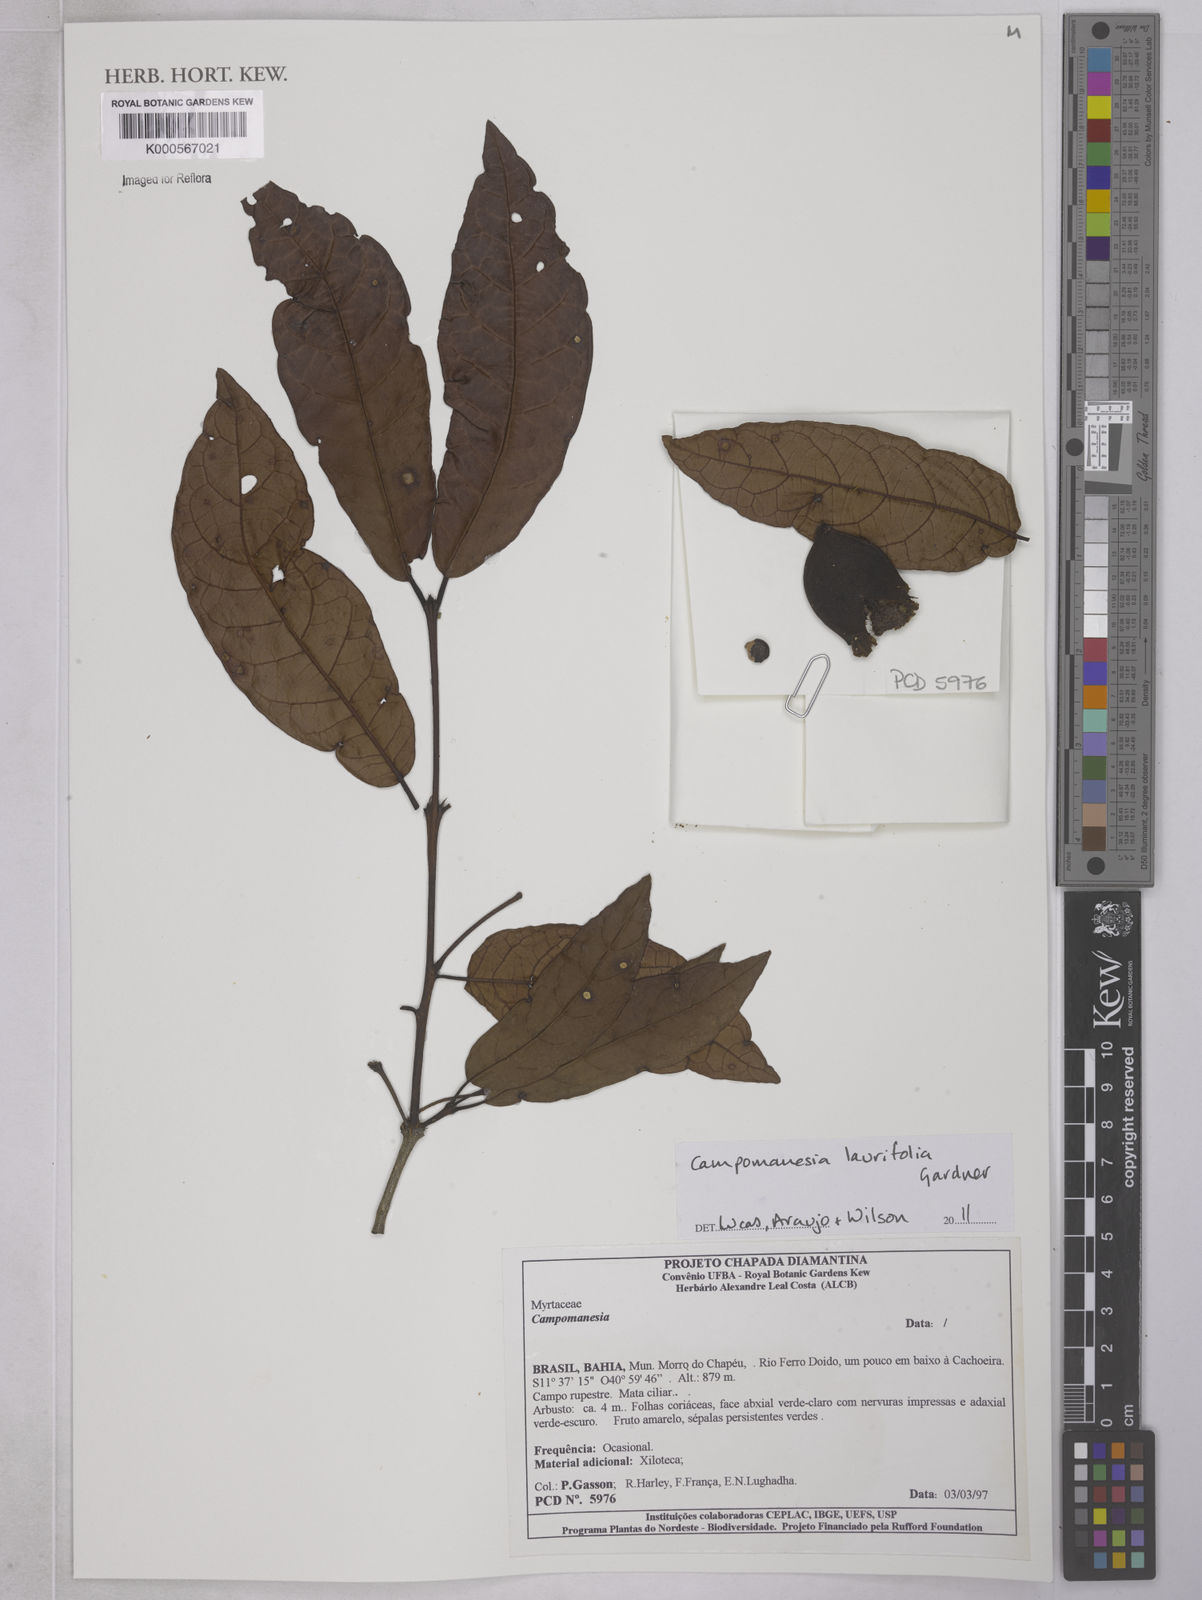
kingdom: Plantae
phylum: Tracheophyta
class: Magnoliopsida
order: Myrtales
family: Myrtaceae
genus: Campomanesia
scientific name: Campomanesia laurifolia
